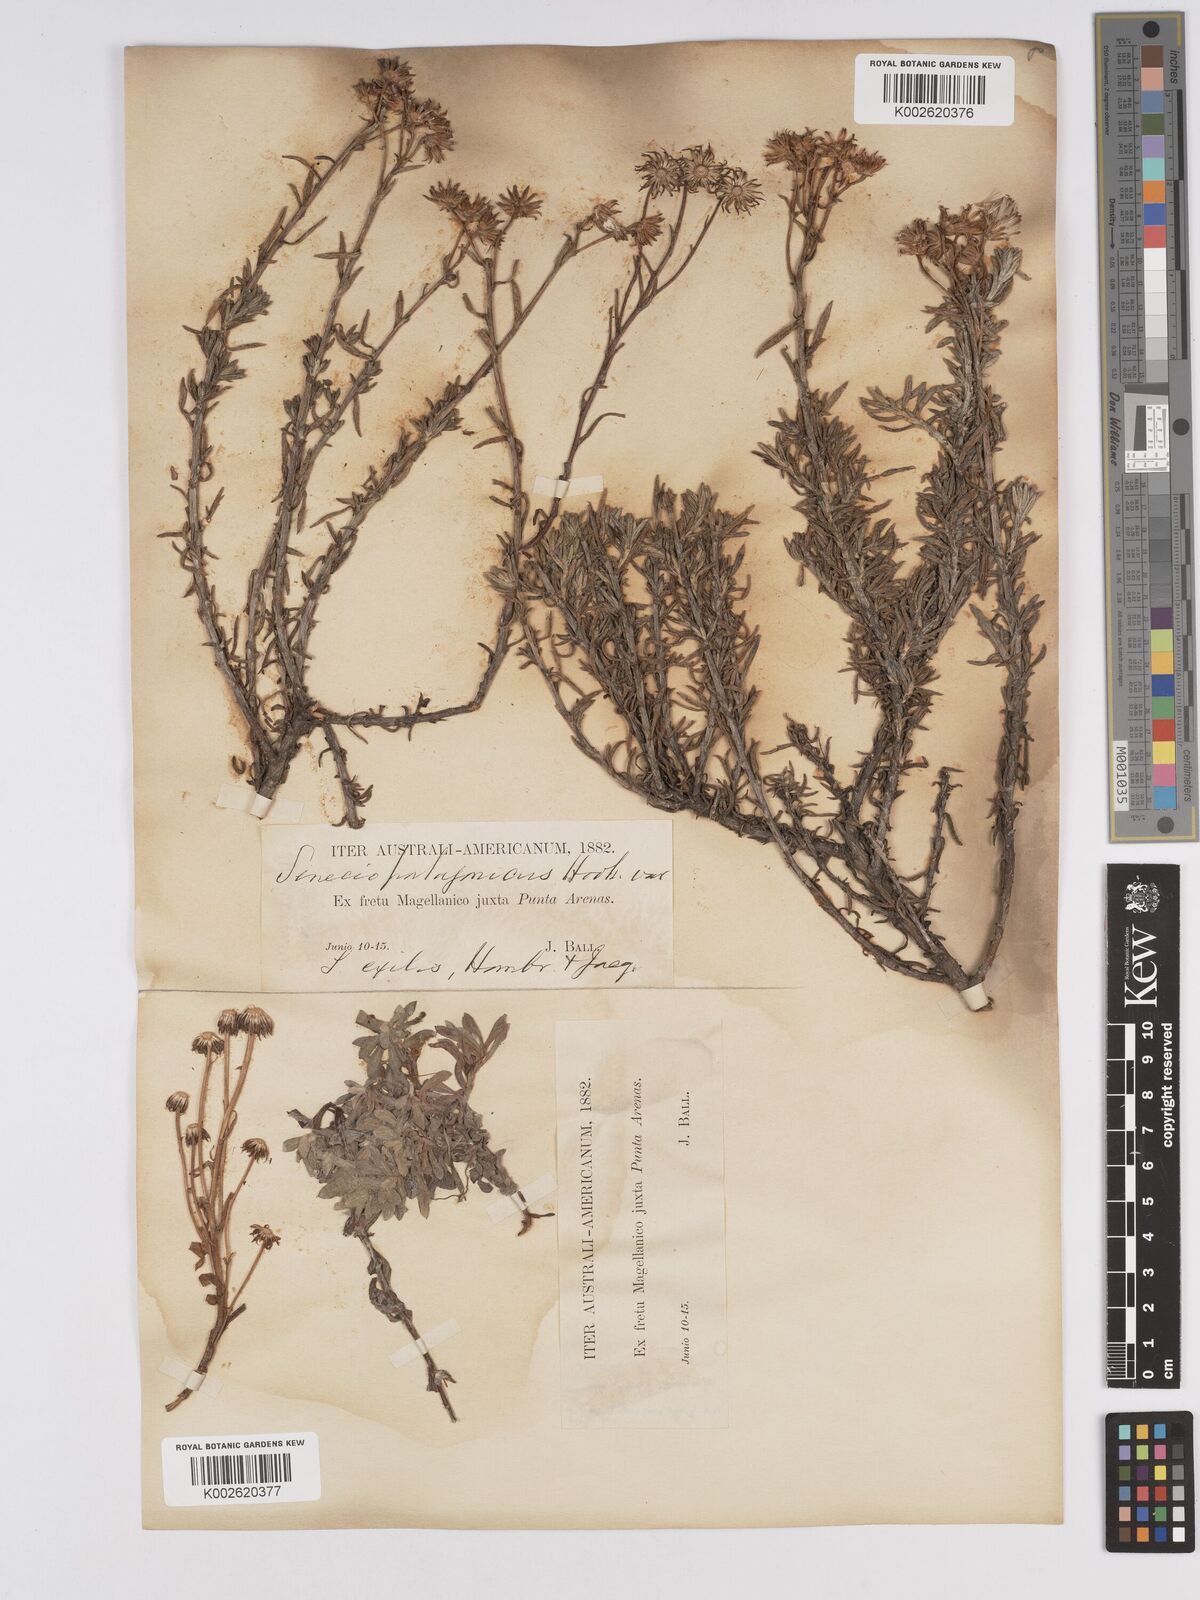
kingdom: Plantae
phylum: Tracheophyta
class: Magnoliopsida
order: Asterales
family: Asteraceae
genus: Senecio
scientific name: Senecio patagonicus
